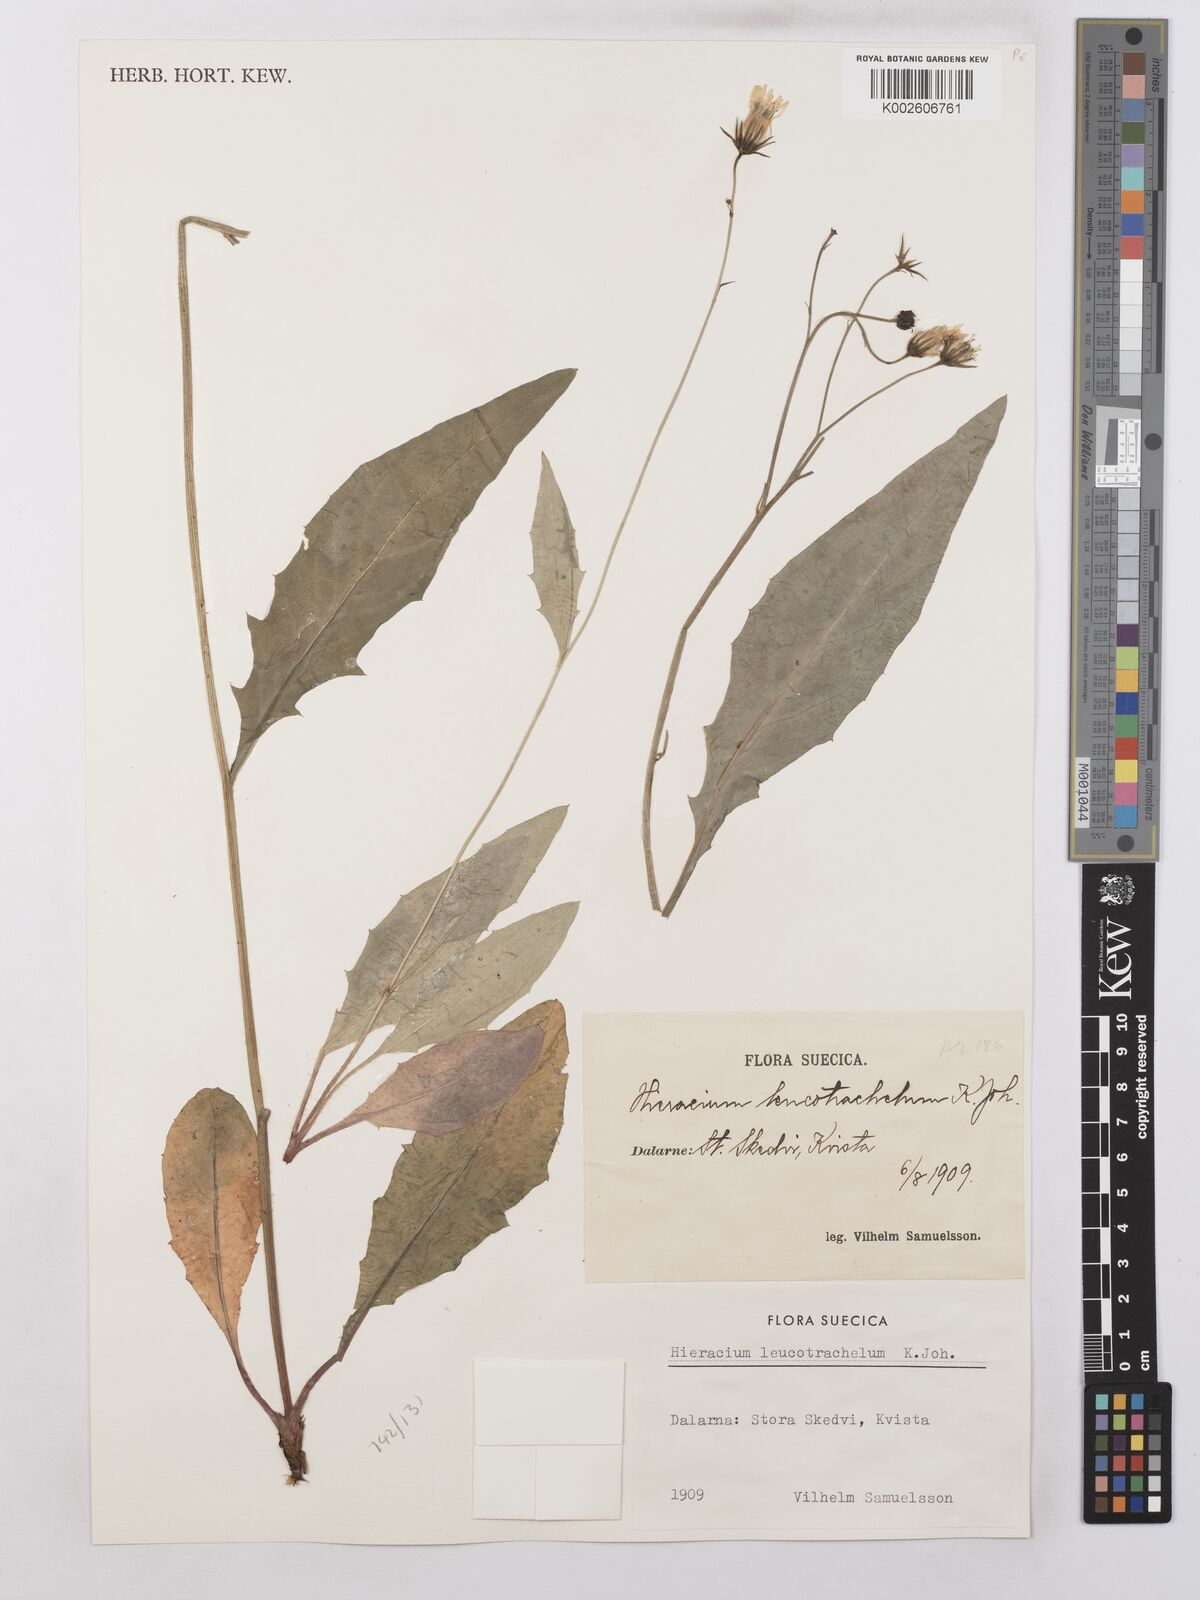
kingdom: Plantae
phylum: Tracheophyta
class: Magnoliopsida
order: Asterales
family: Asteraceae
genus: Hieracium
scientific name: Hieracium lachenalii
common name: Common hawkweed
